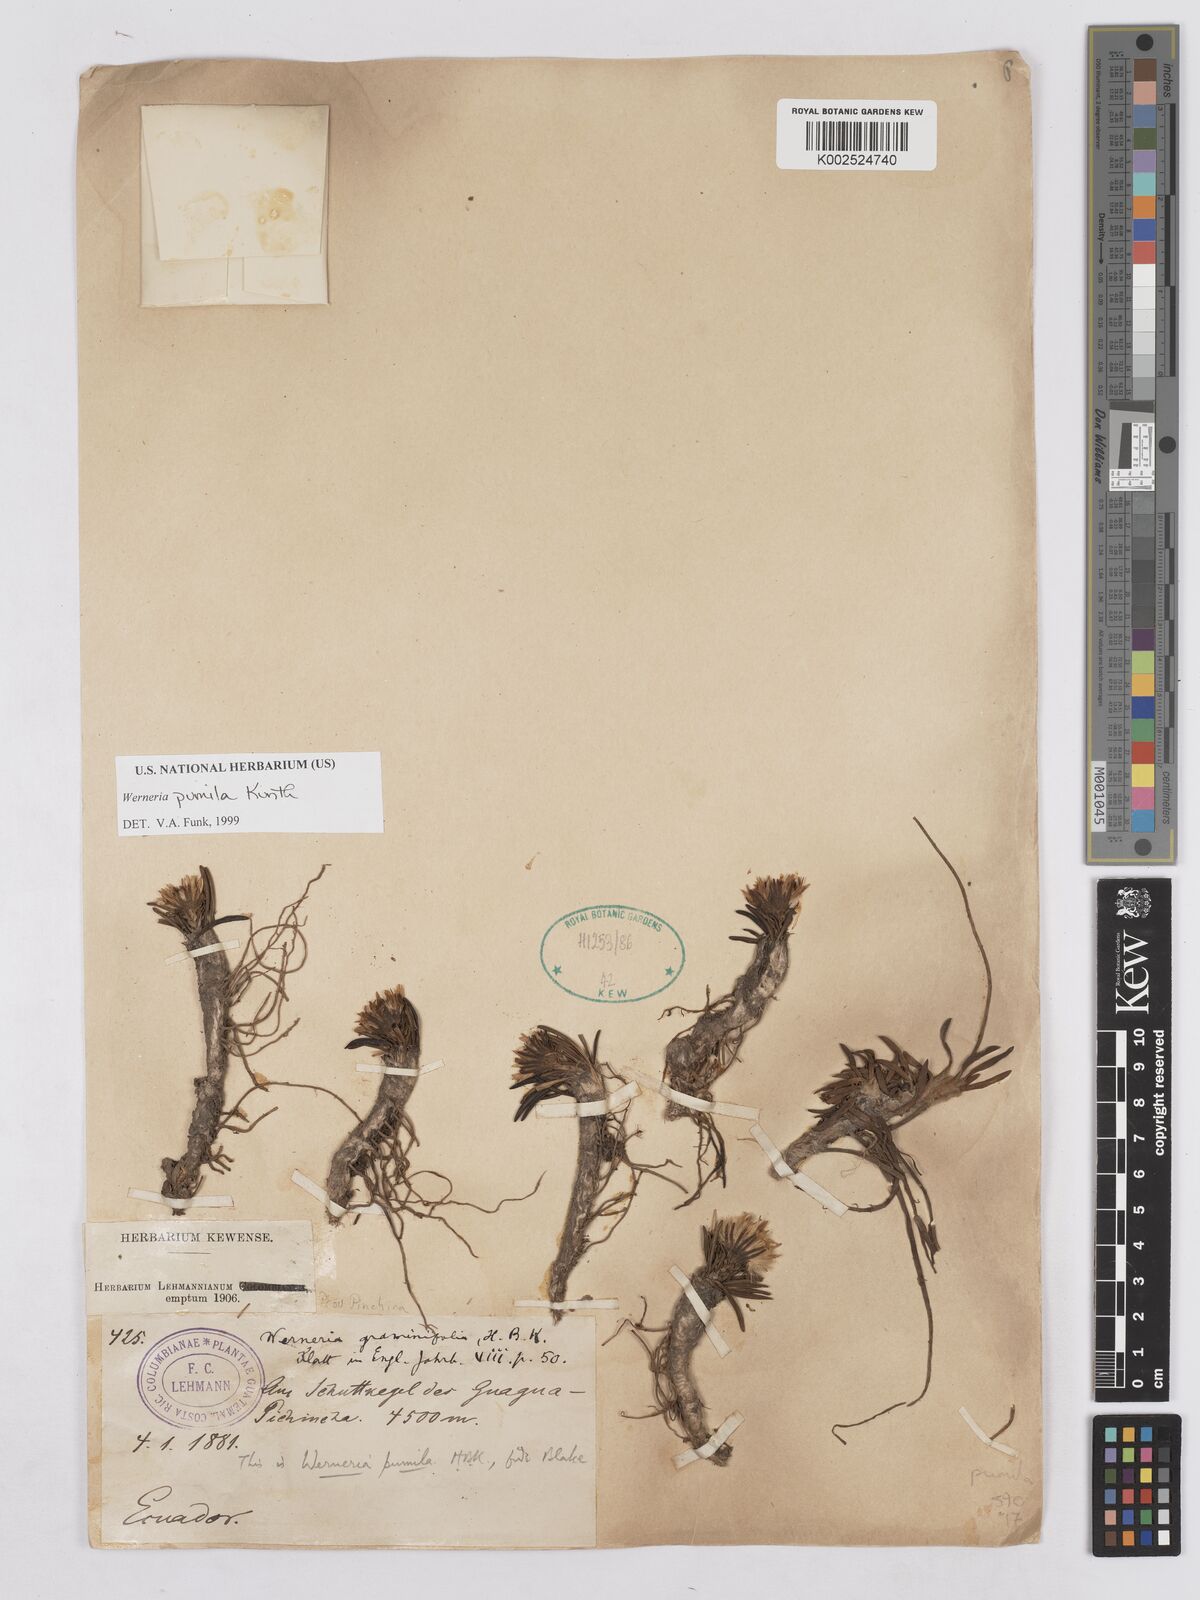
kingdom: Plantae
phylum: Tracheophyta
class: Magnoliopsida
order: Asterales
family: Asteraceae
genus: Rockhausenia
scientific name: Rockhausenia pumila
